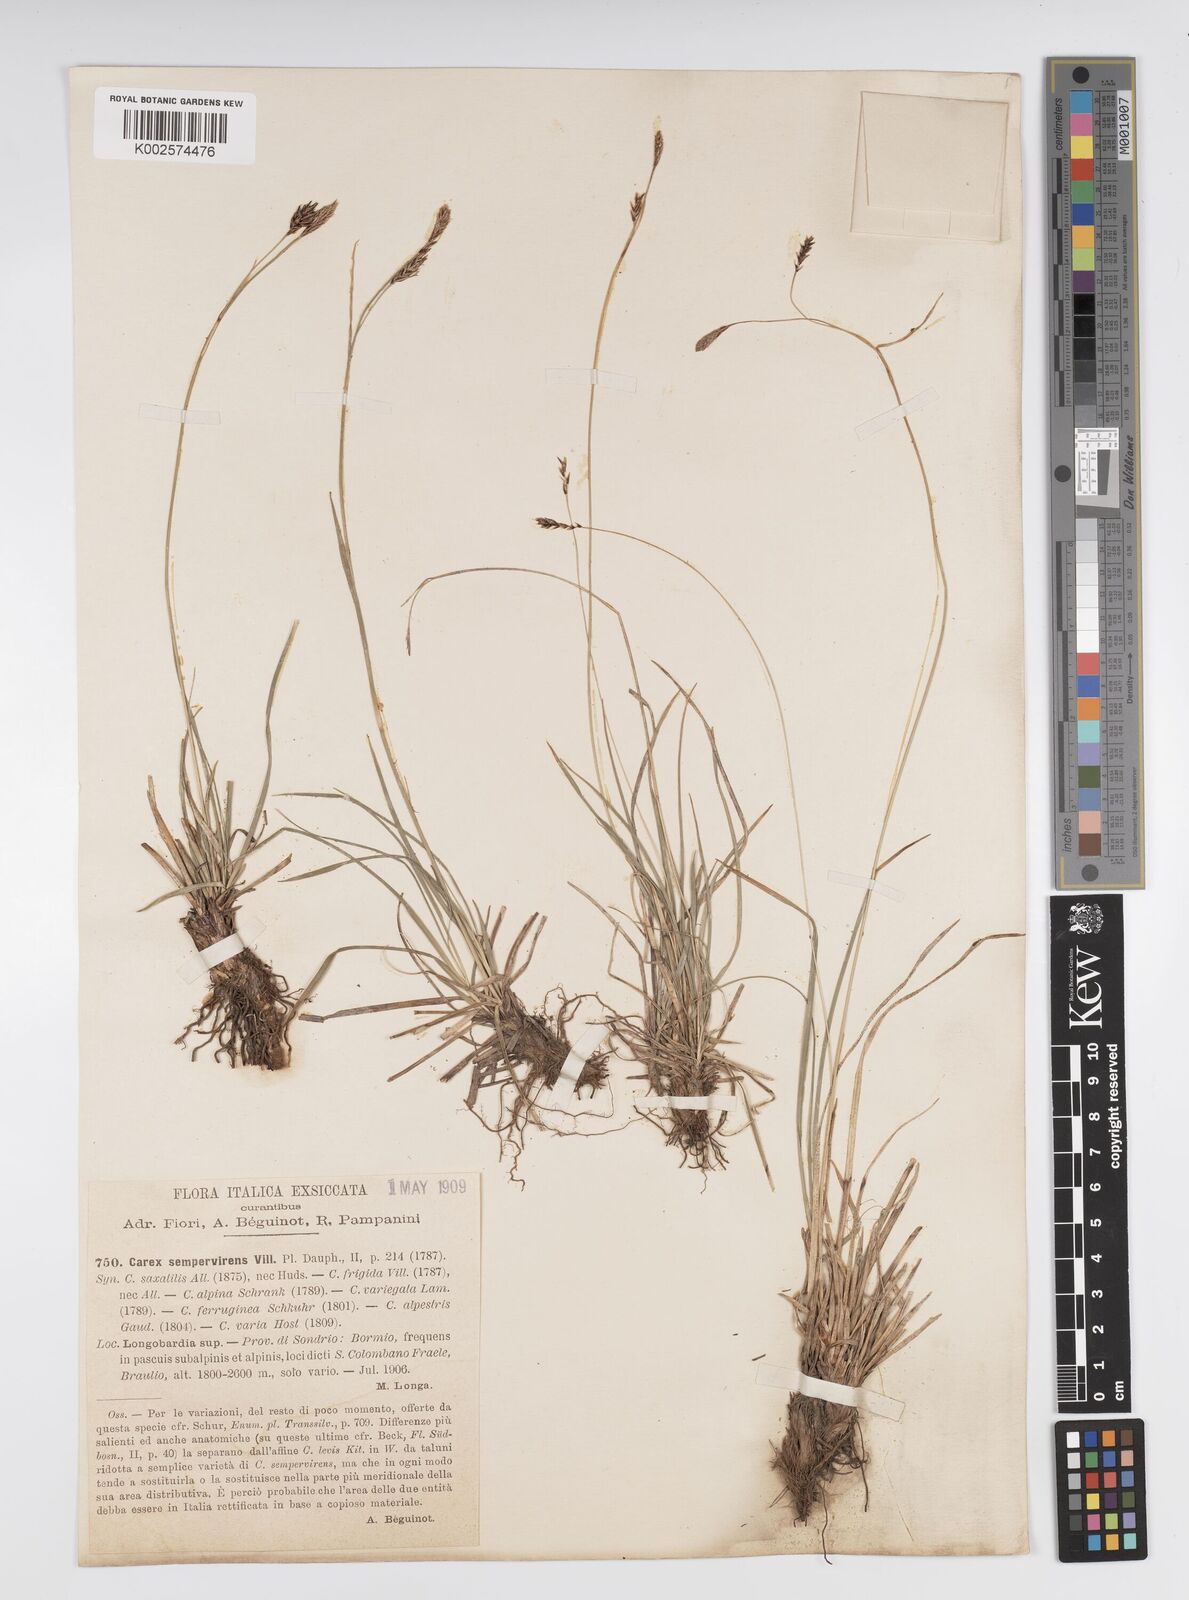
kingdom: Plantae
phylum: Tracheophyta
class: Liliopsida
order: Poales
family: Cyperaceae
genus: Carex
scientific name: Carex sempervirens
